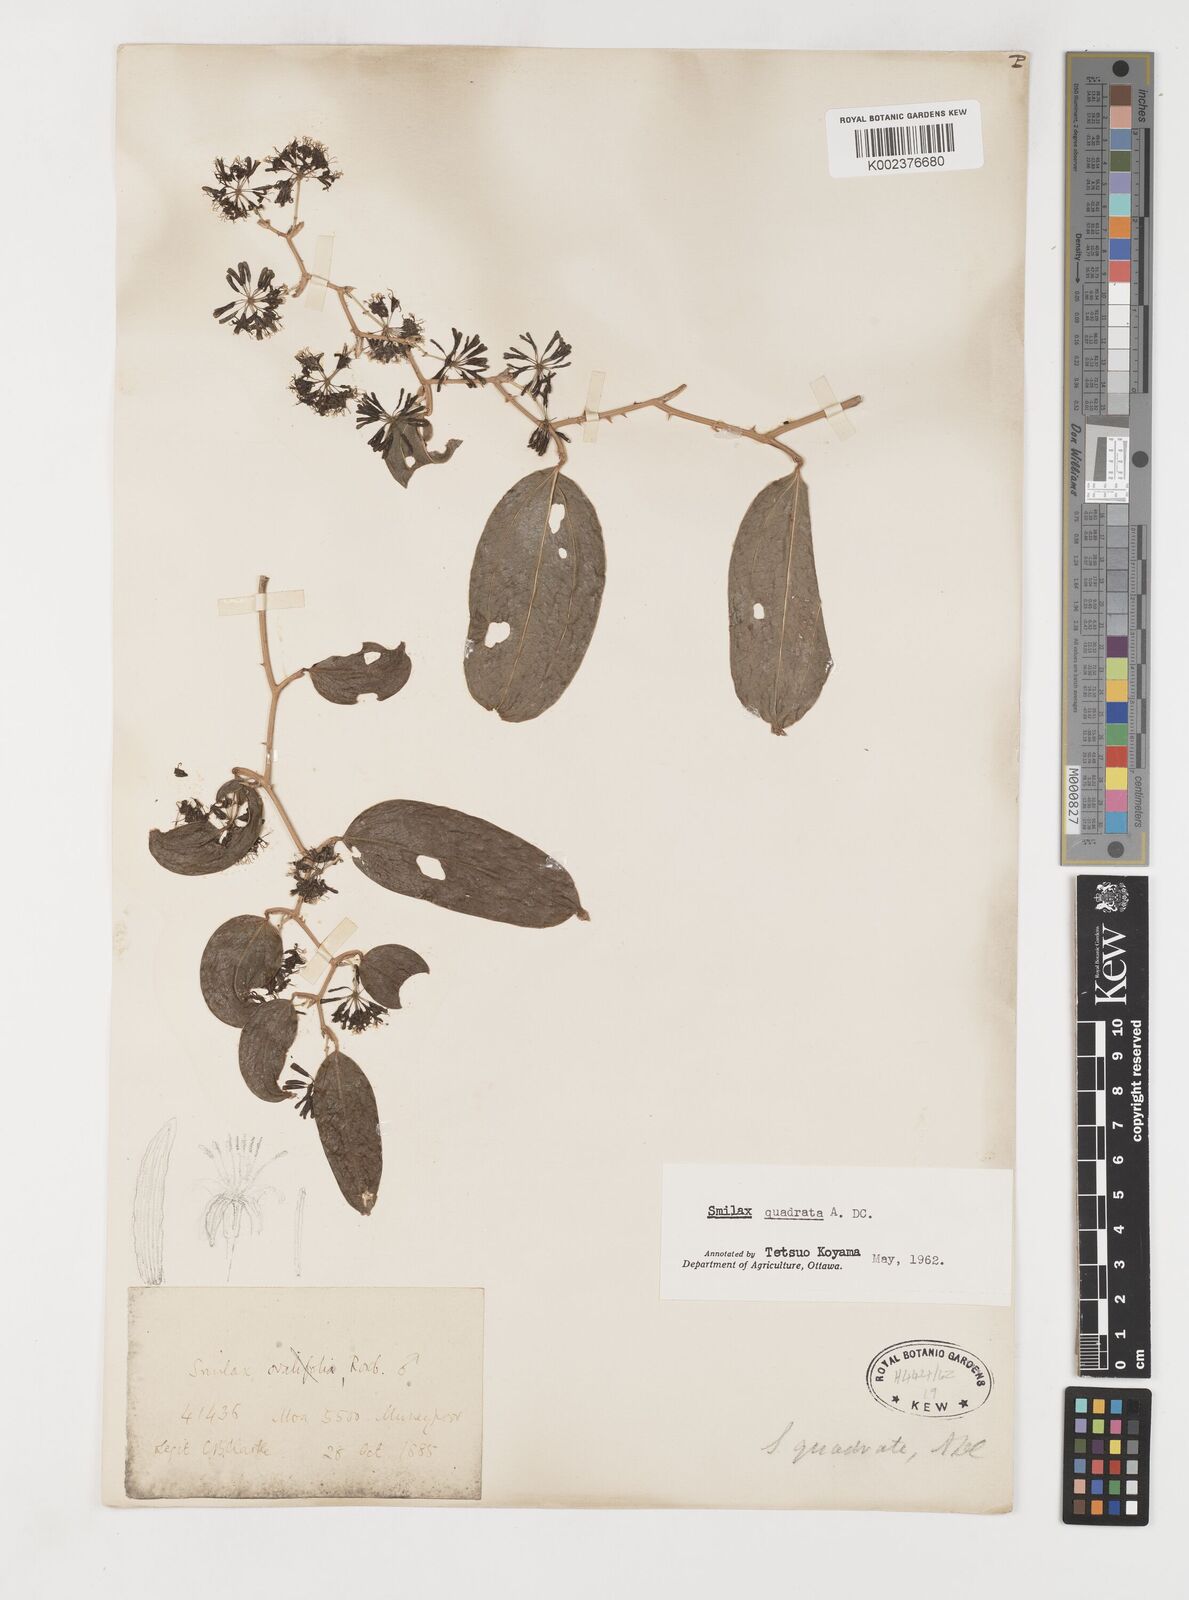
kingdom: Plantae
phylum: Tracheophyta
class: Liliopsida
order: Liliales
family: Smilacaceae
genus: Smilax
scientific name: Smilax quadrata
